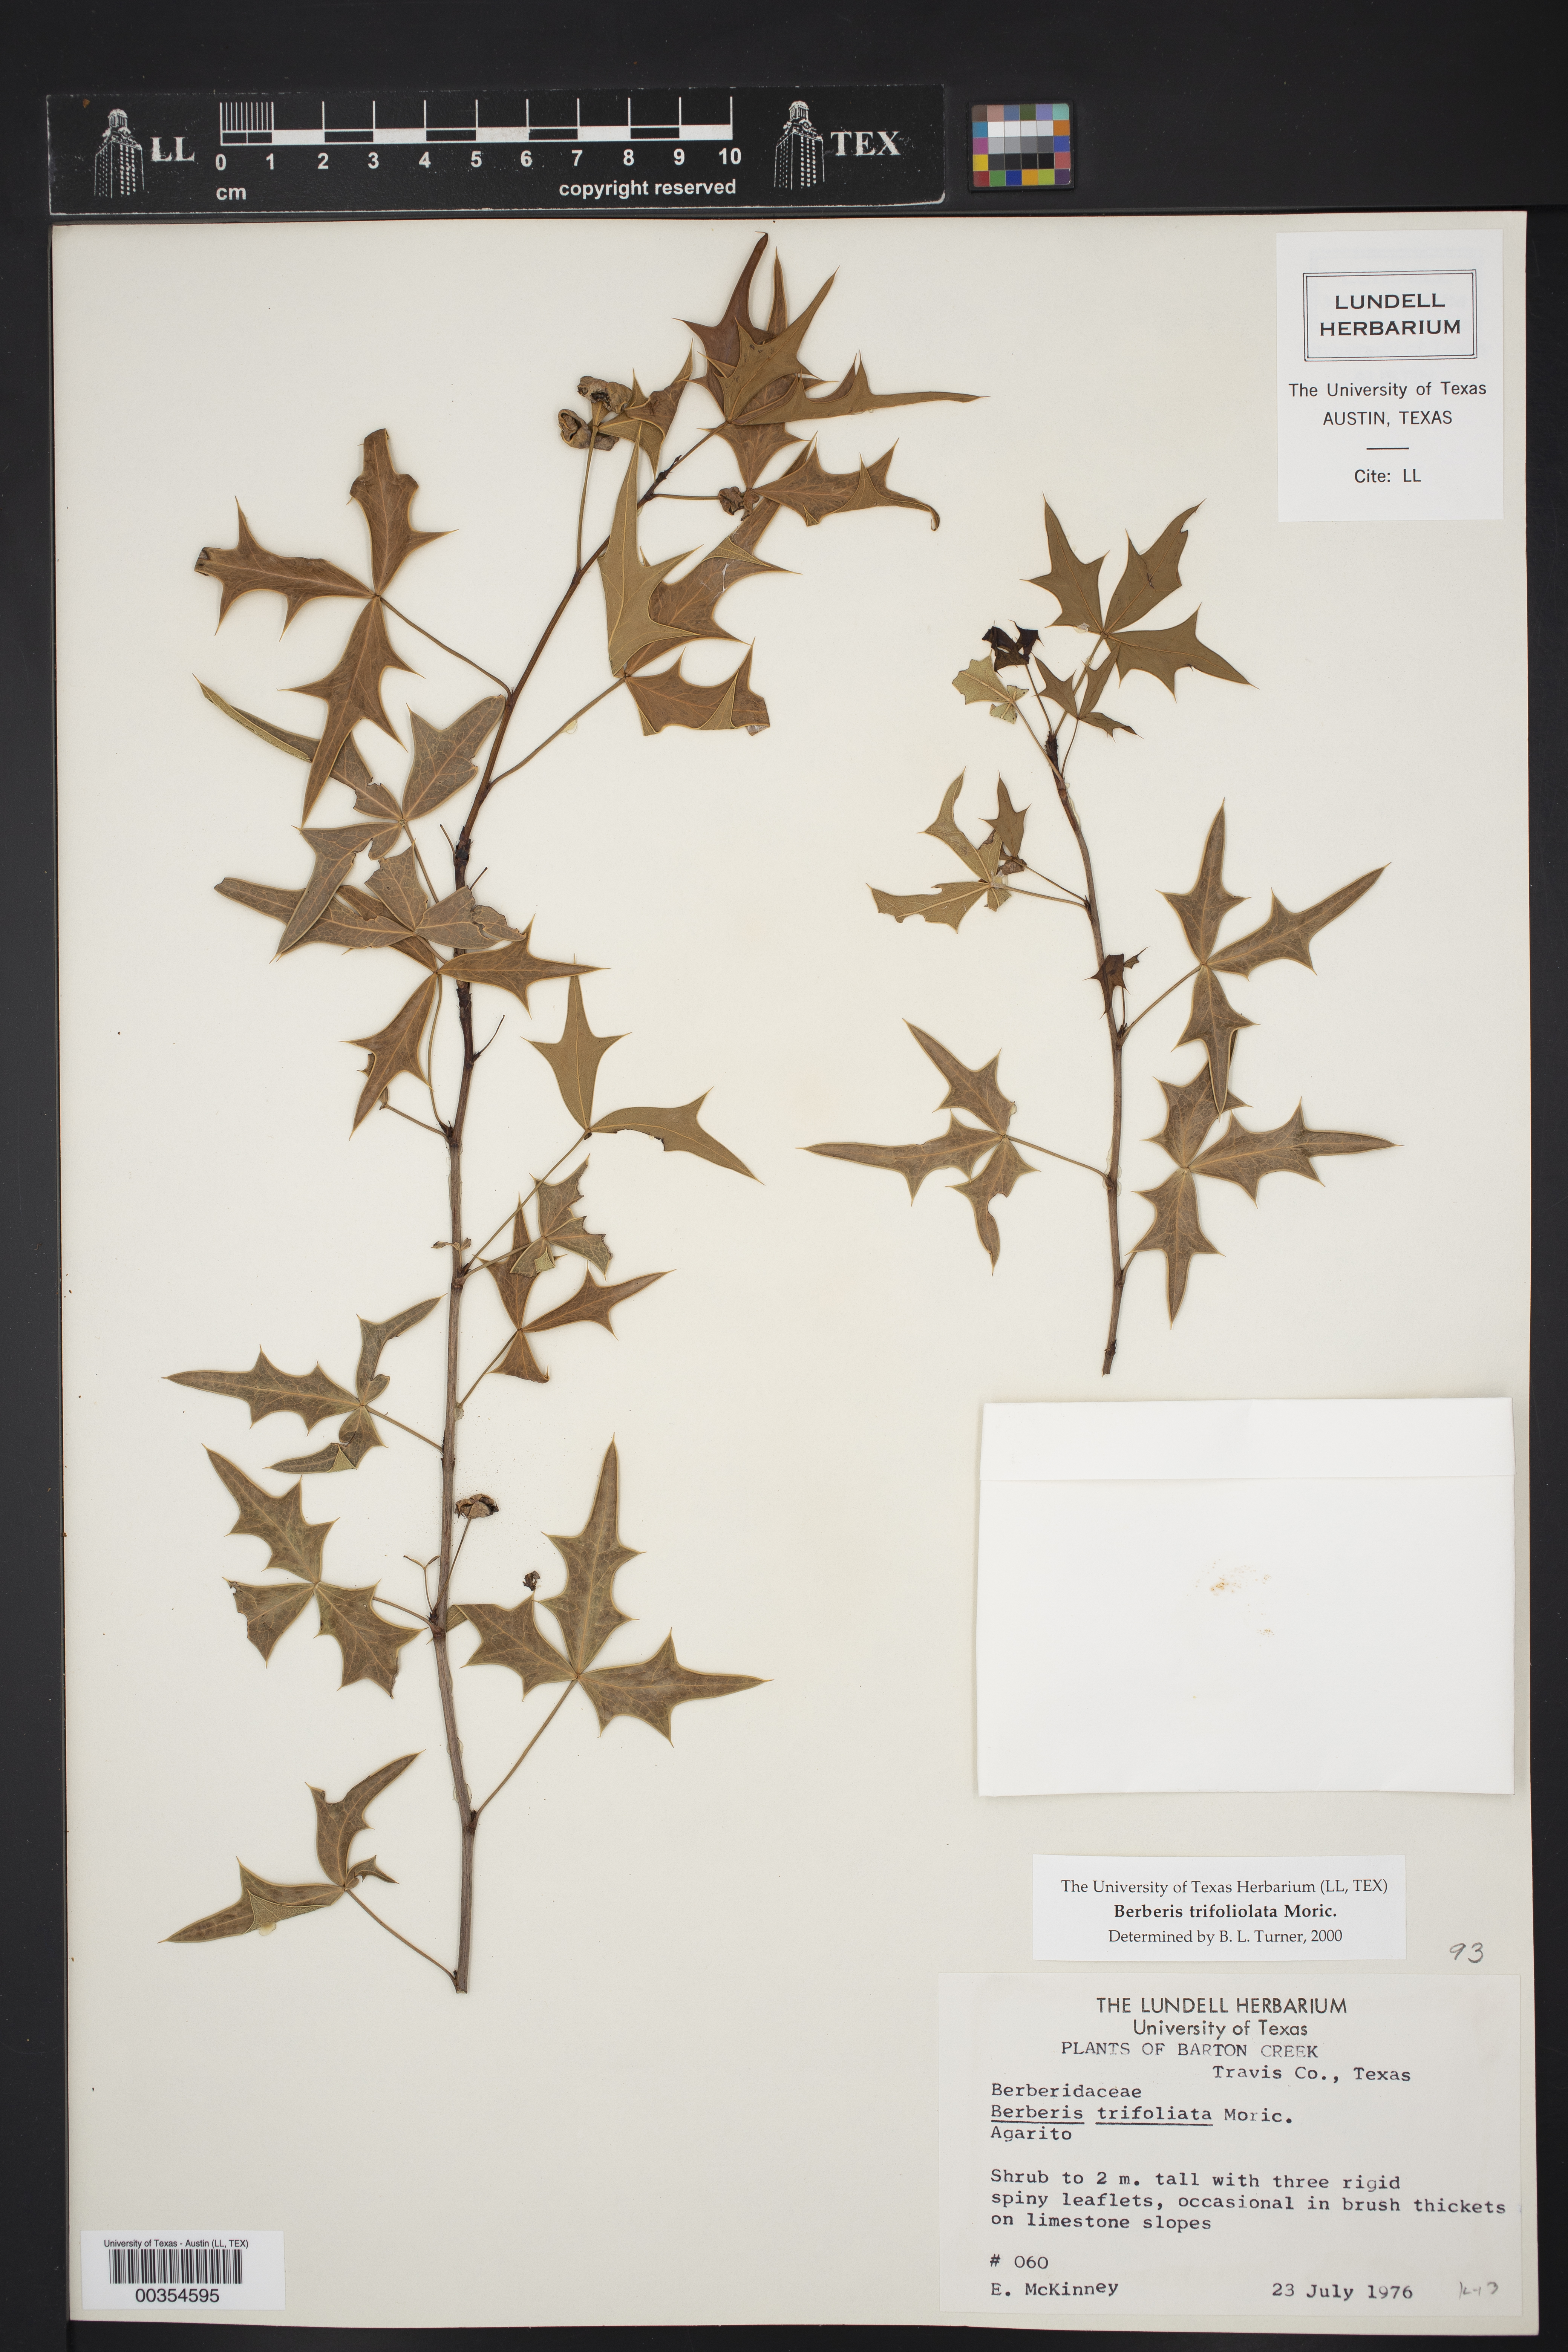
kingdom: Plantae
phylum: Tracheophyta
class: Magnoliopsida
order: Ranunculales
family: Berberidaceae
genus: Alloberberis
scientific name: Alloberberis trifoliolata
